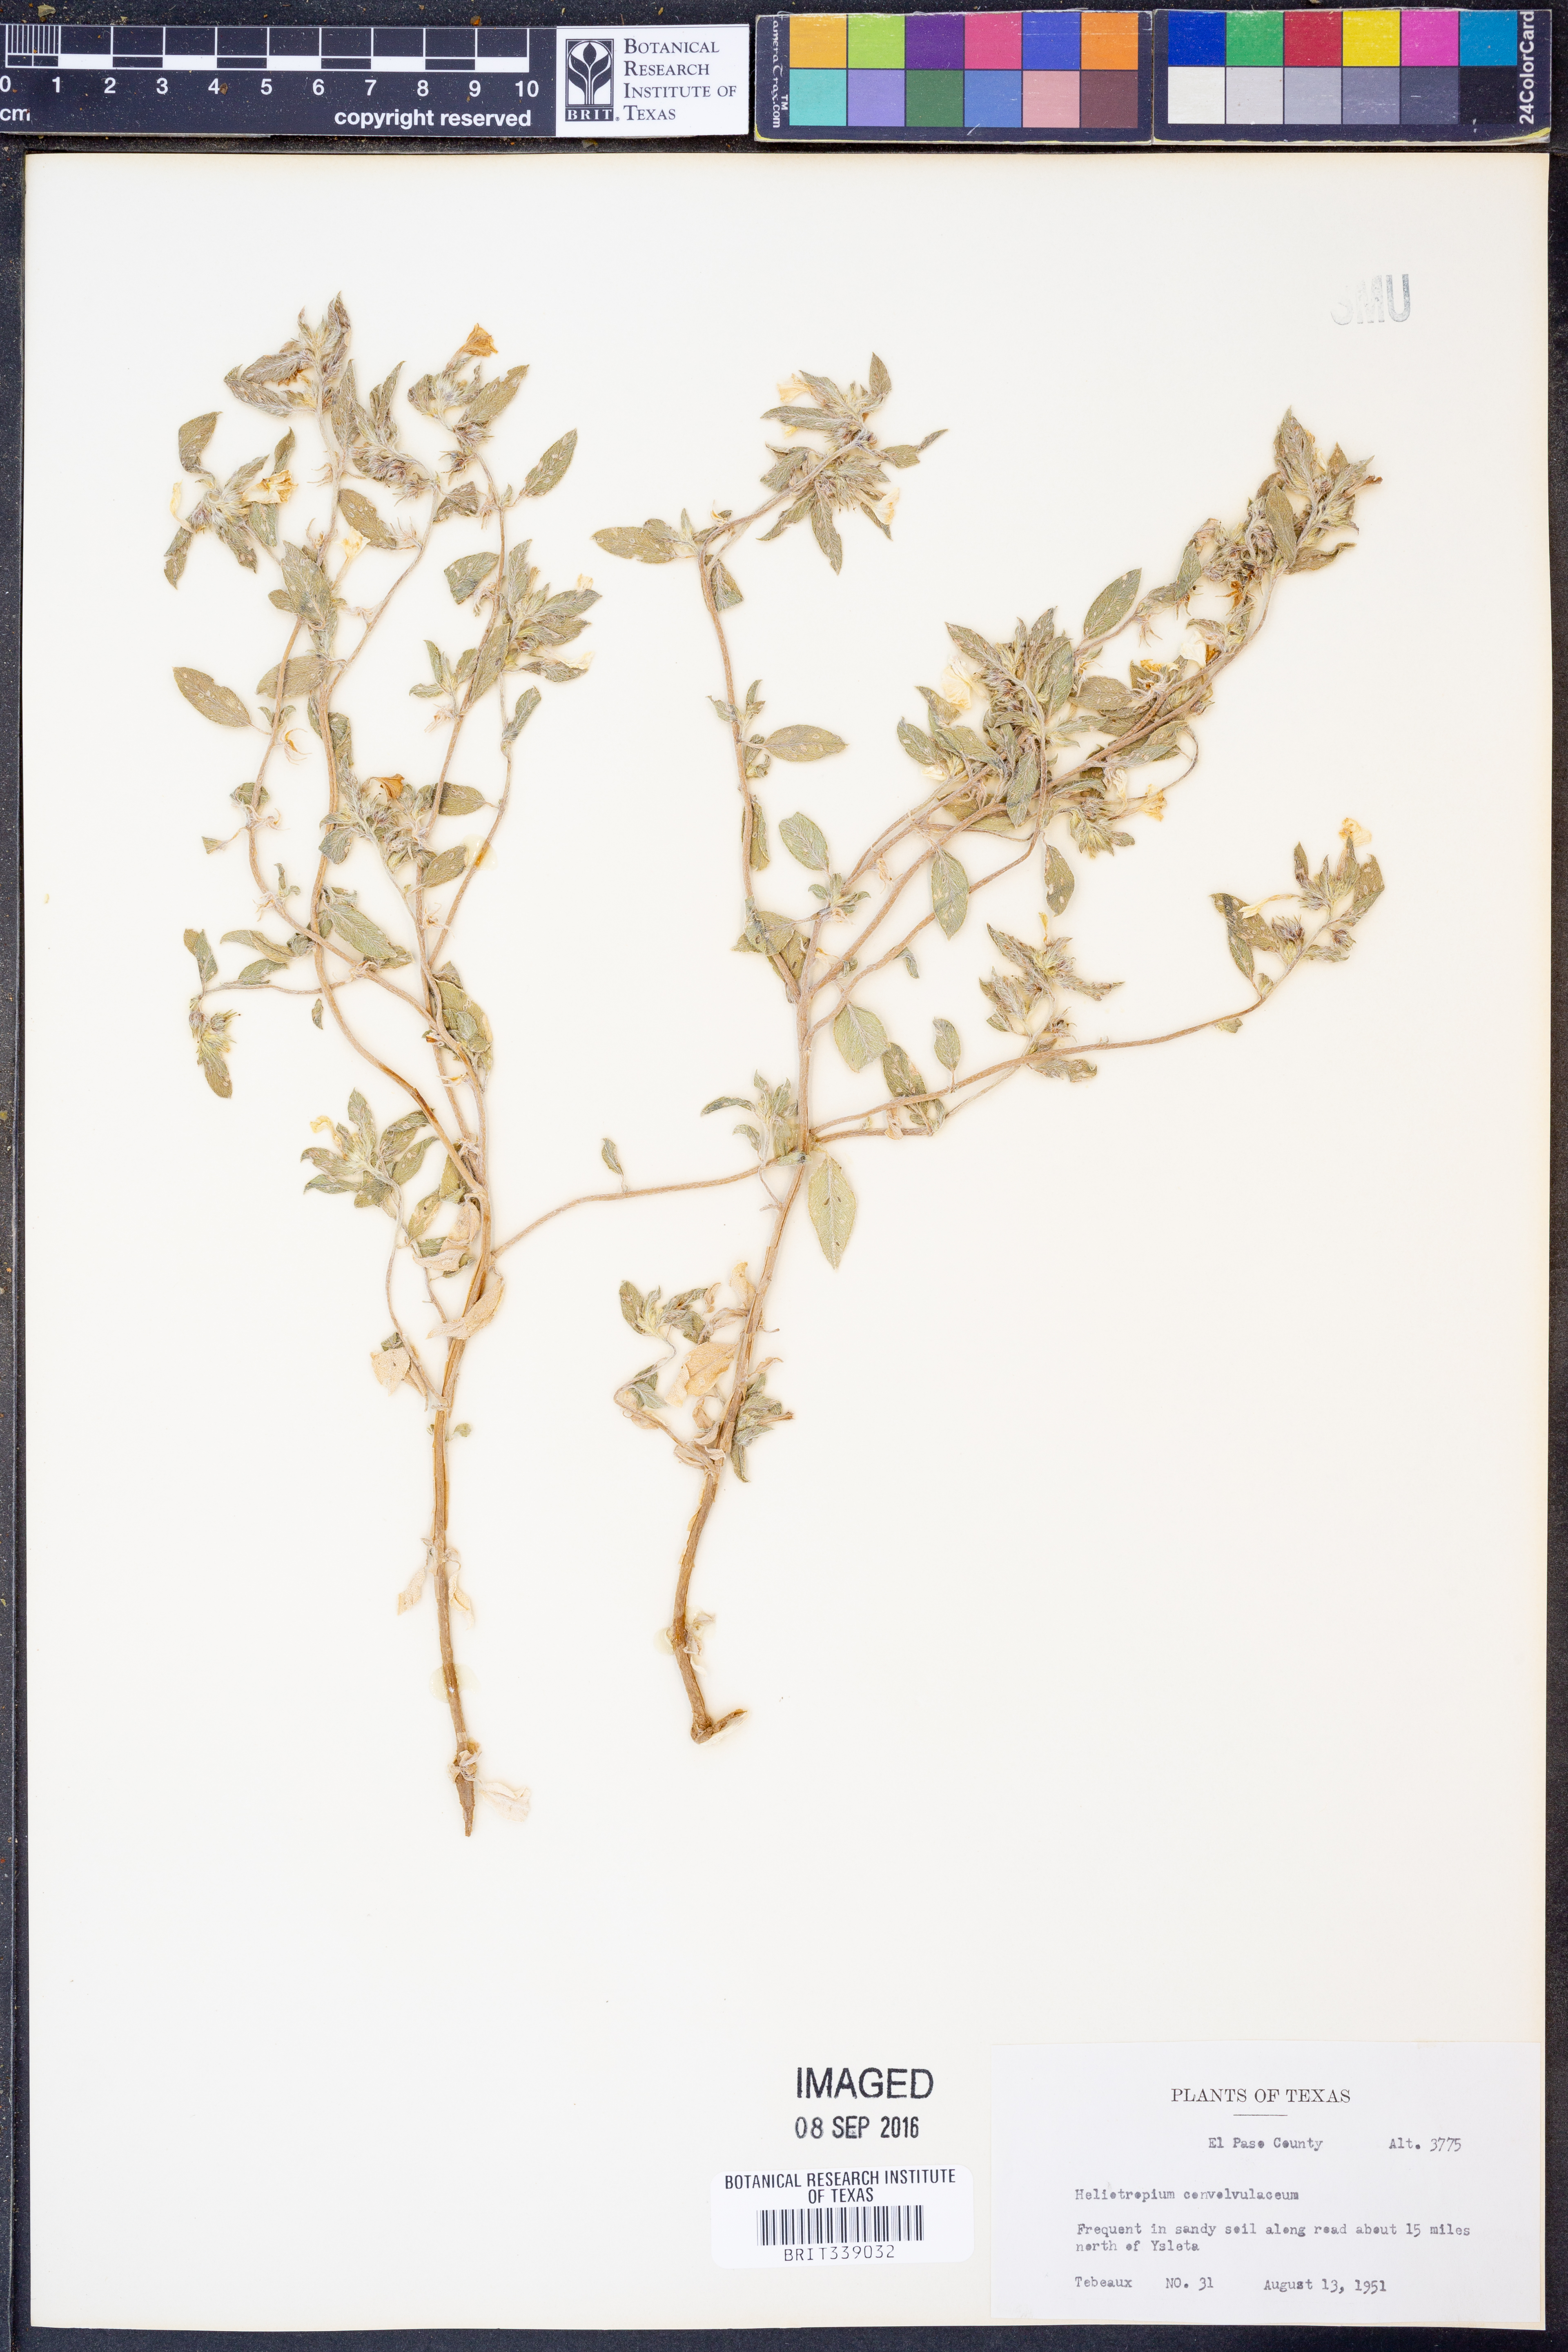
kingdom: Plantae
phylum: Tracheophyta
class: Magnoliopsida
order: Boraginales
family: Heliotropiaceae
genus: Euploca
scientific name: Euploca convolvulacea
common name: Bindweed heliotrope
